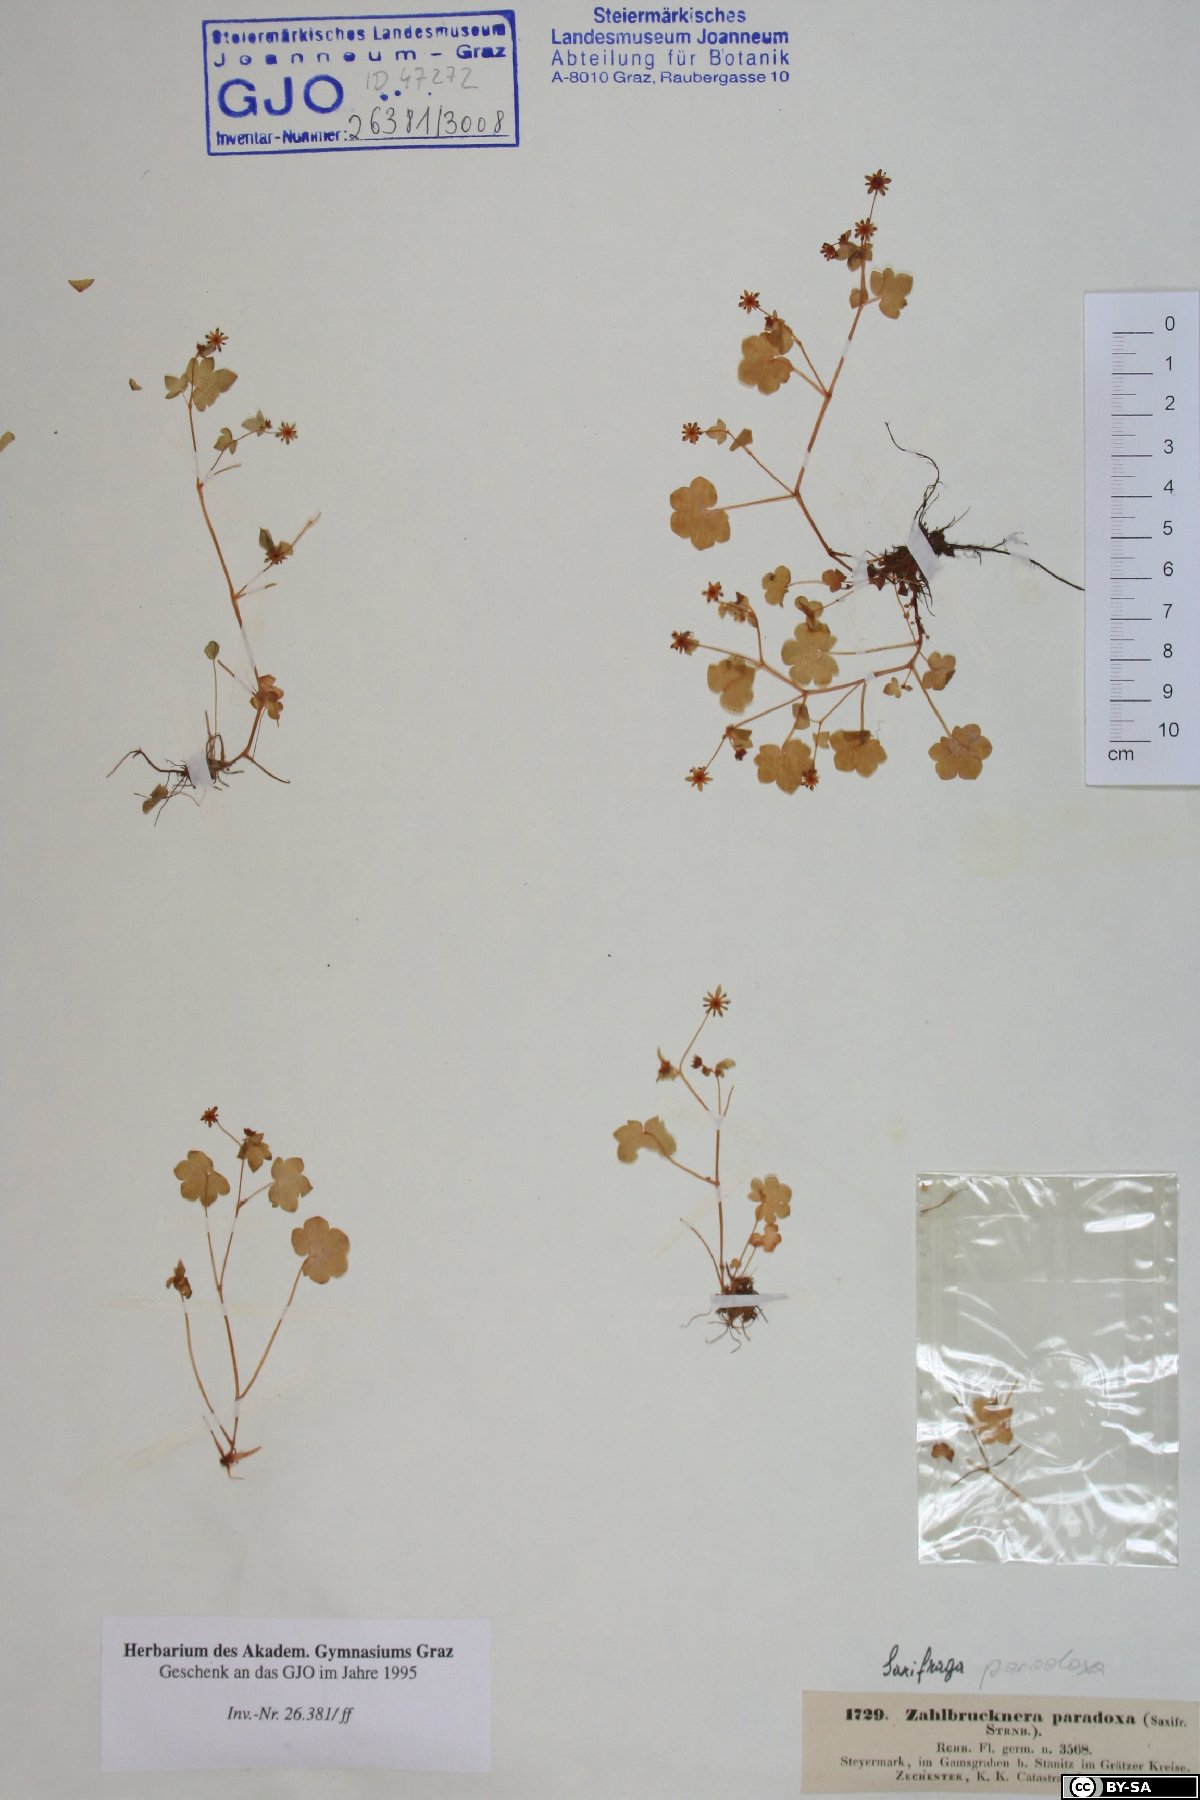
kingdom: Plantae
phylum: Tracheophyta
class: Magnoliopsida
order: Saxifragales
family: Saxifragaceae
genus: Saxifraga
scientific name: Saxifraga paradoxa
